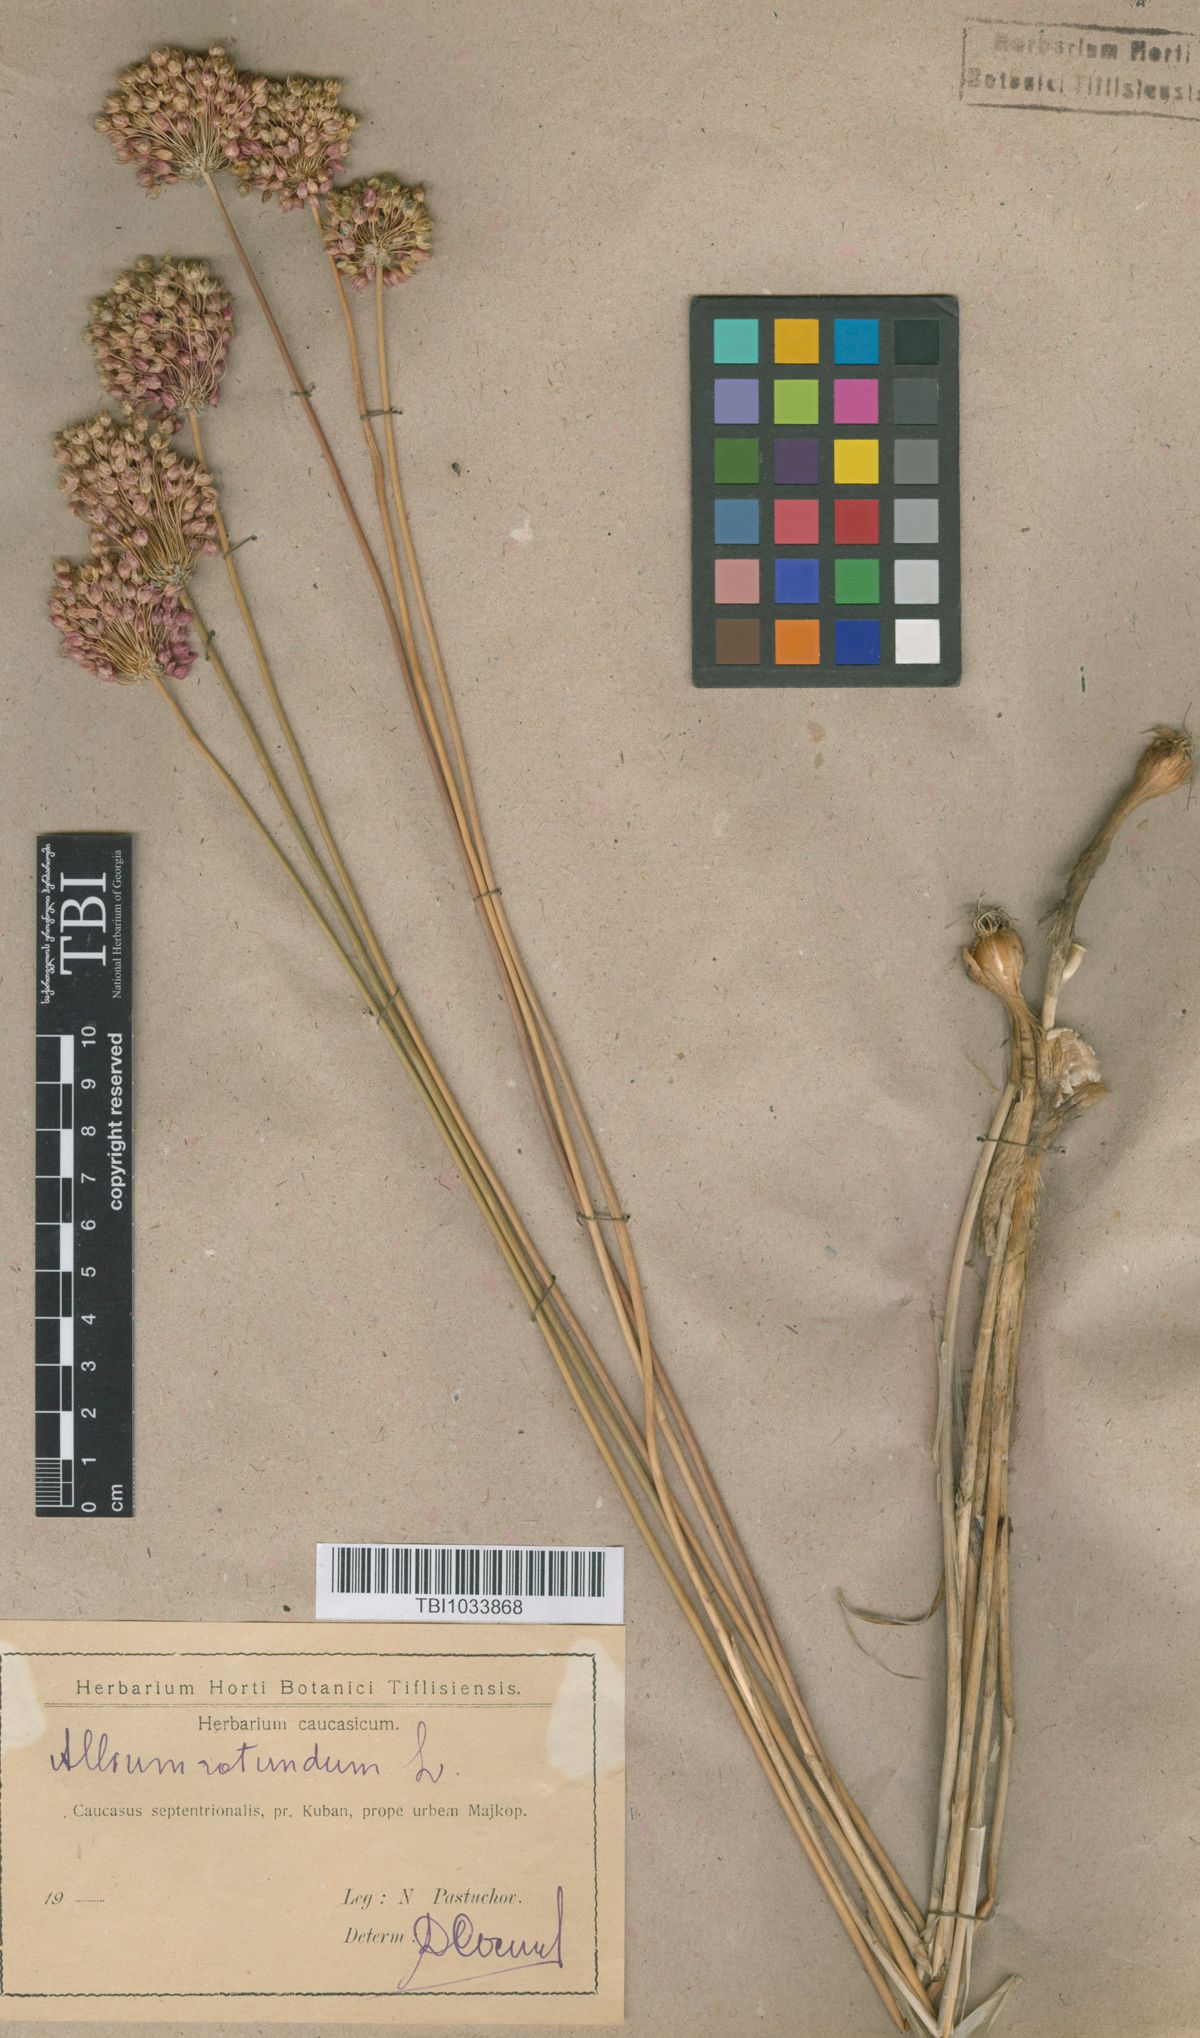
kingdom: Plantae
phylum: Tracheophyta
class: Liliopsida
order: Asparagales
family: Amaryllidaceae
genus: Allium
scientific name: Allium rotundum
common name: Sand leek
